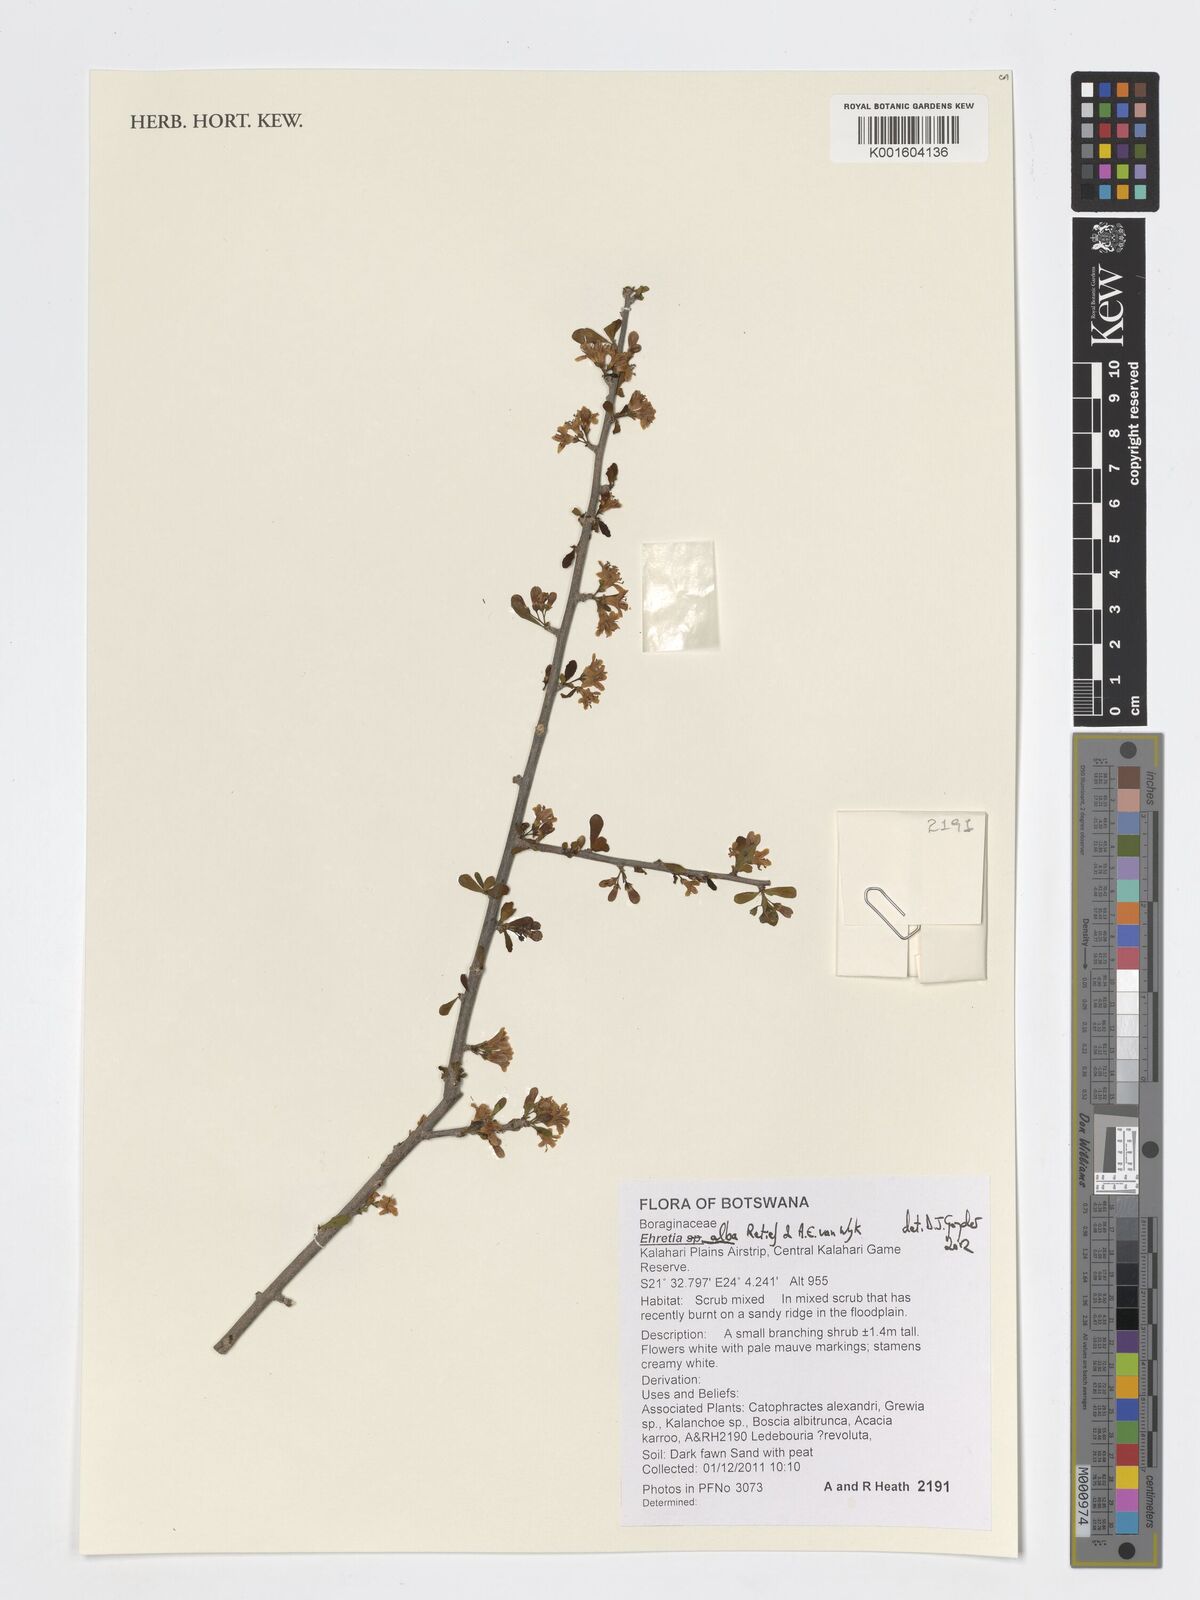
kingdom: Plantae
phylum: Tracheophyta
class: Magnoliopsida
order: Boraginales
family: Ehretiaceae
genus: Ehretia
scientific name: Ehretia alba
